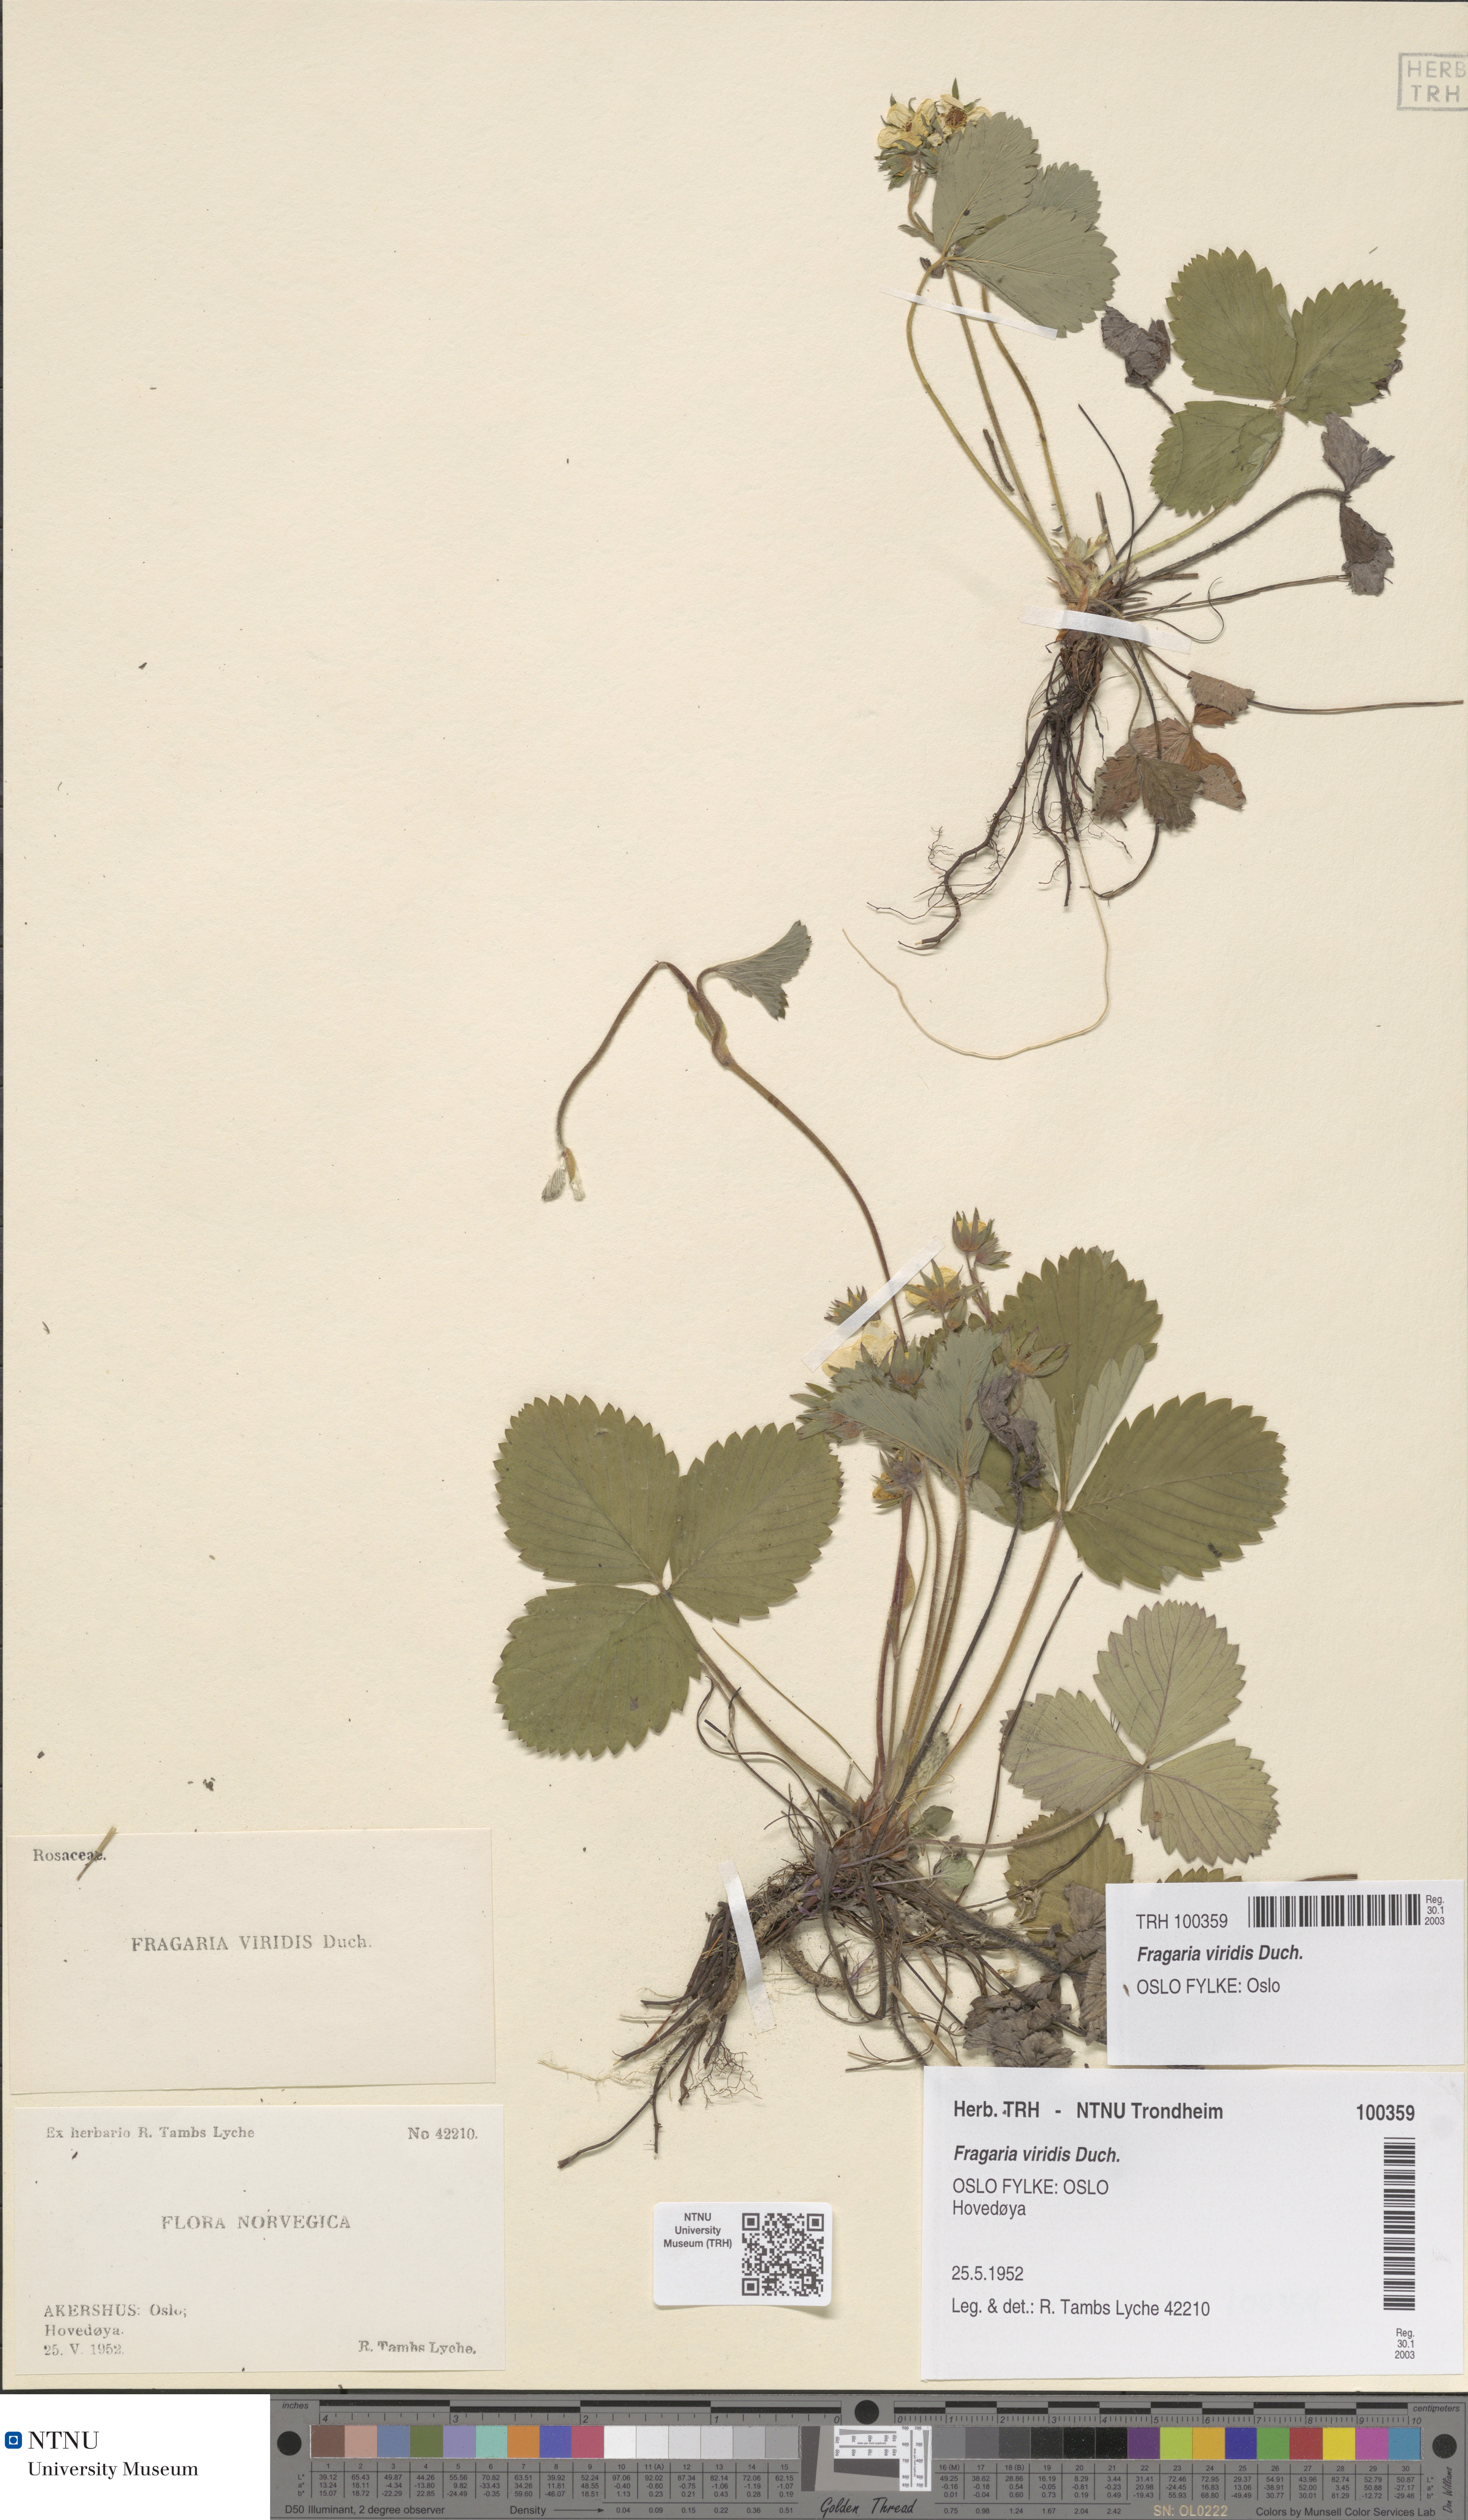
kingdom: Plantae
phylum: Tracheophyta
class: Magnoliopsida
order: Rosales
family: Rosaceae
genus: Fragaria
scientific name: Fragaria viridis
